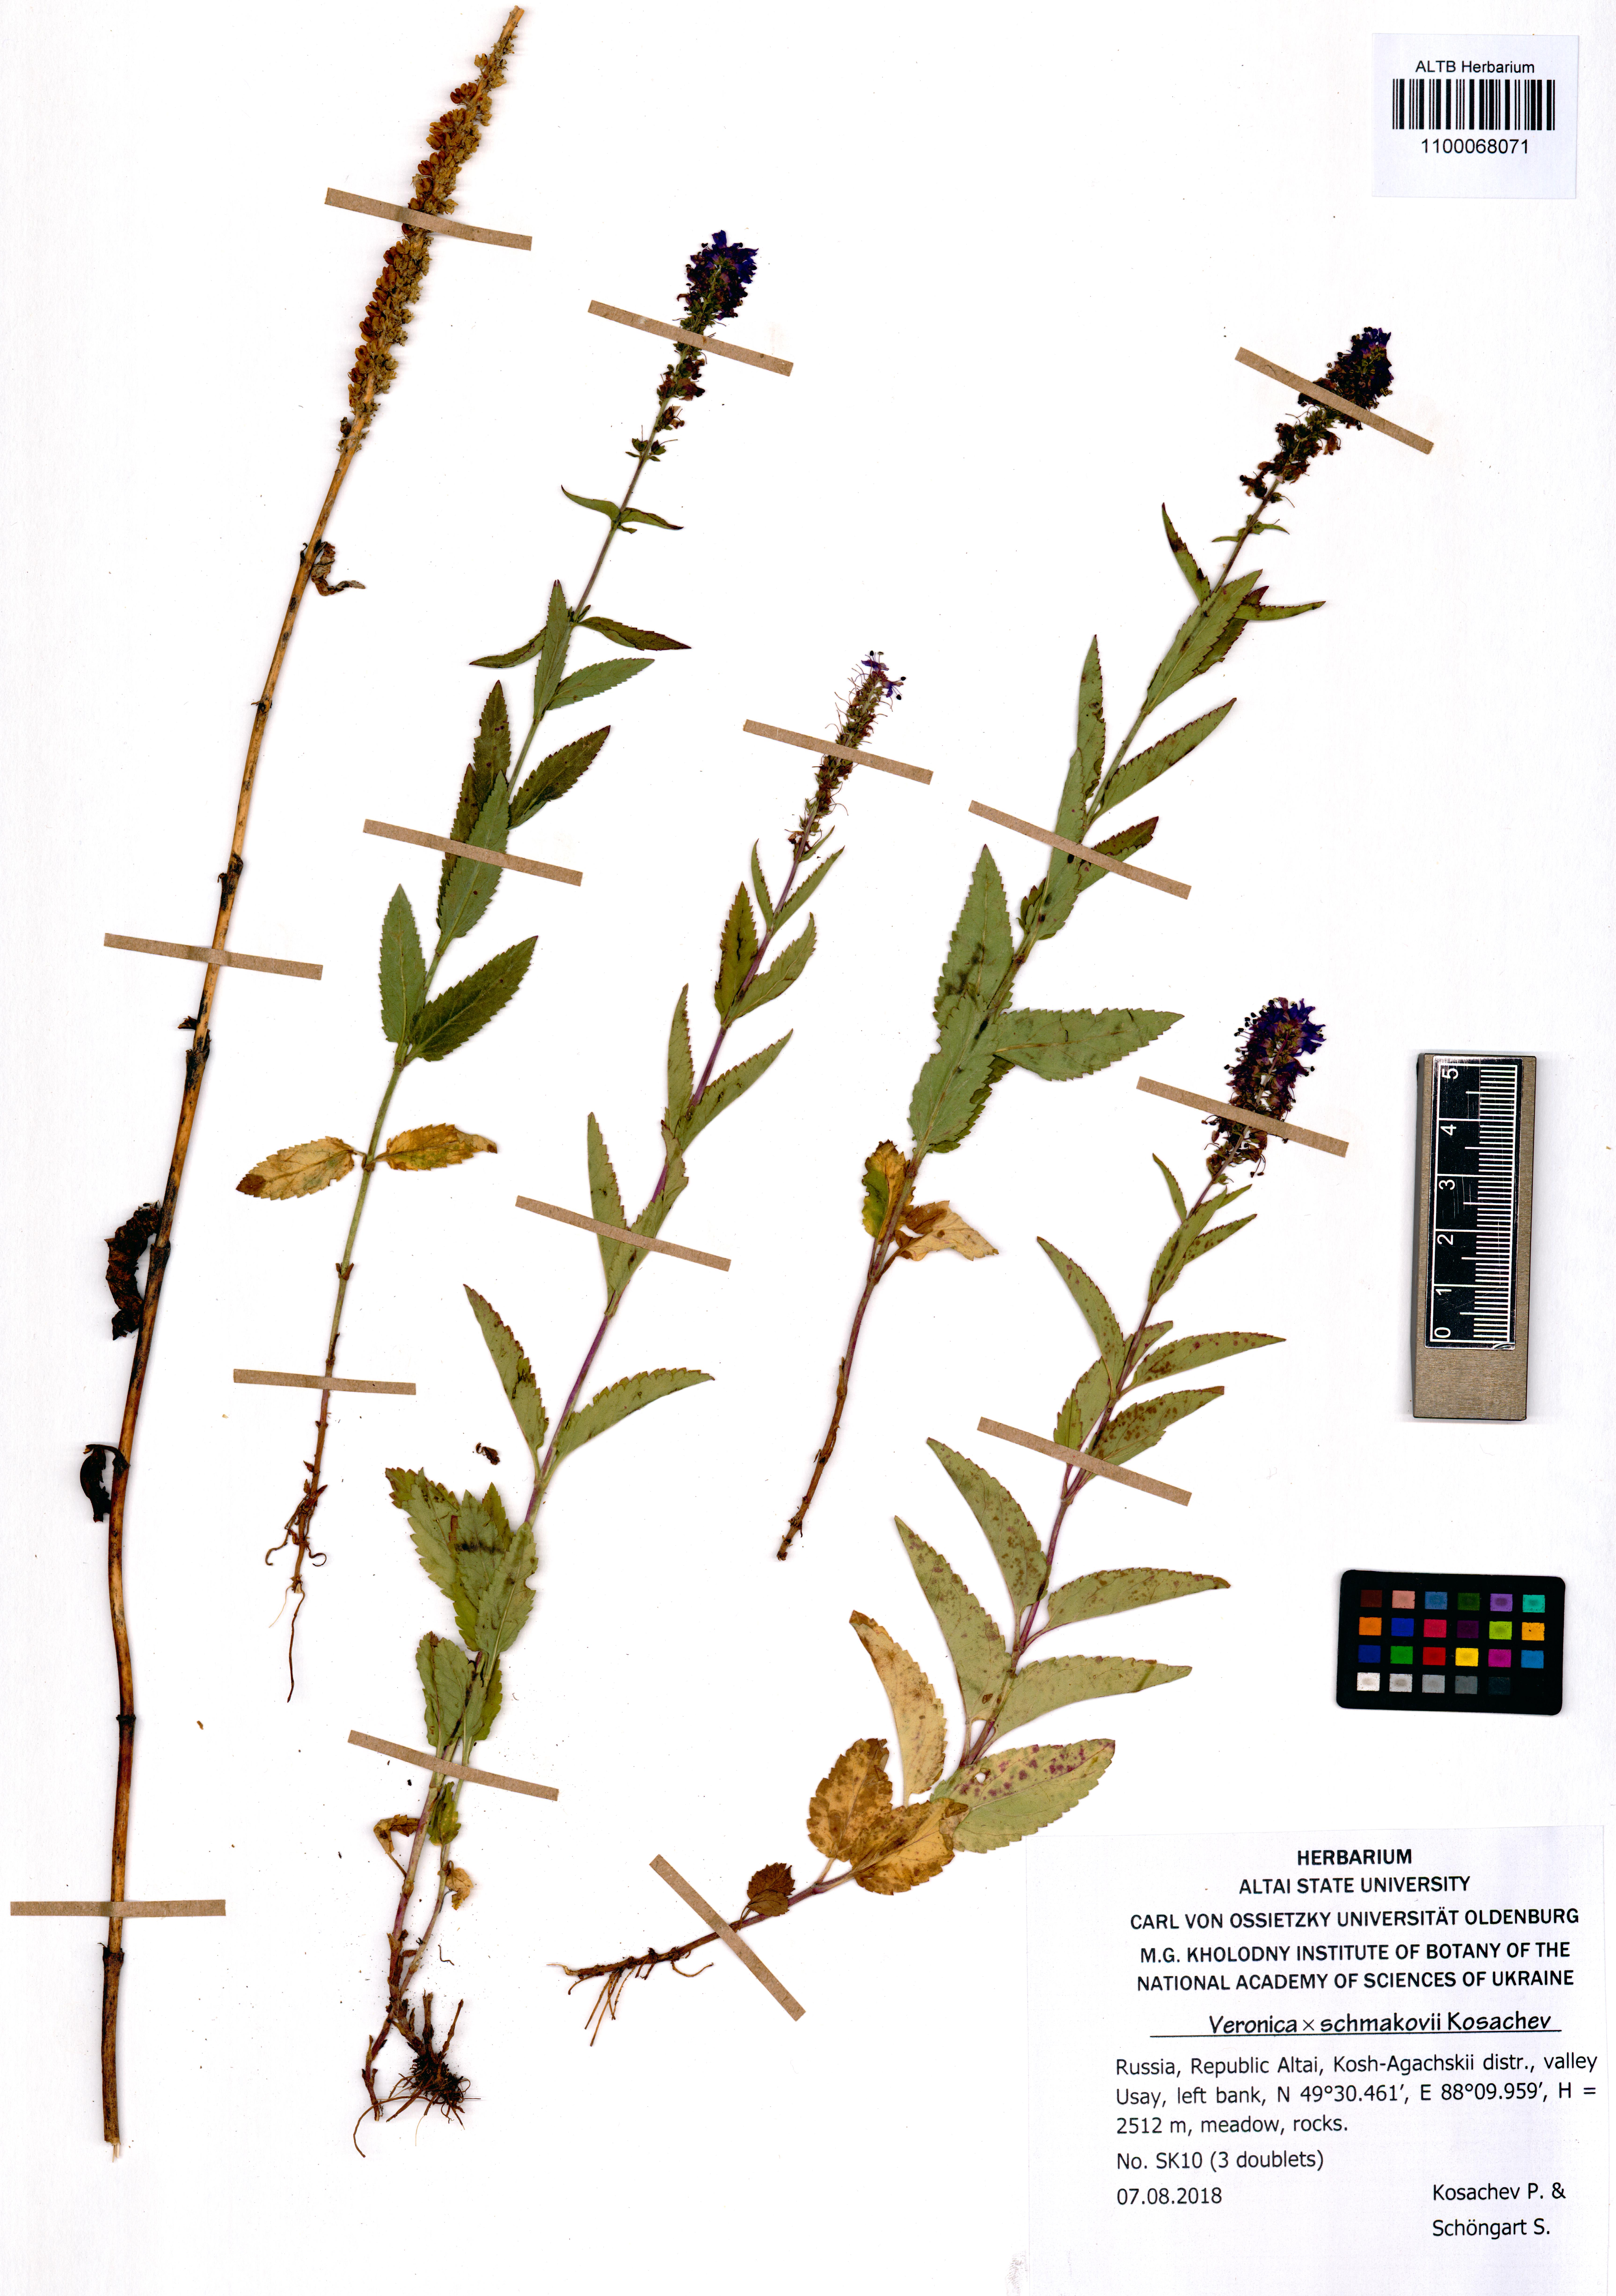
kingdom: Plantae
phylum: Tracheophyta
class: Magnoliopsida
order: Lamiales
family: Plantaginaceae
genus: Veronica
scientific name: Veronica schmakovii
